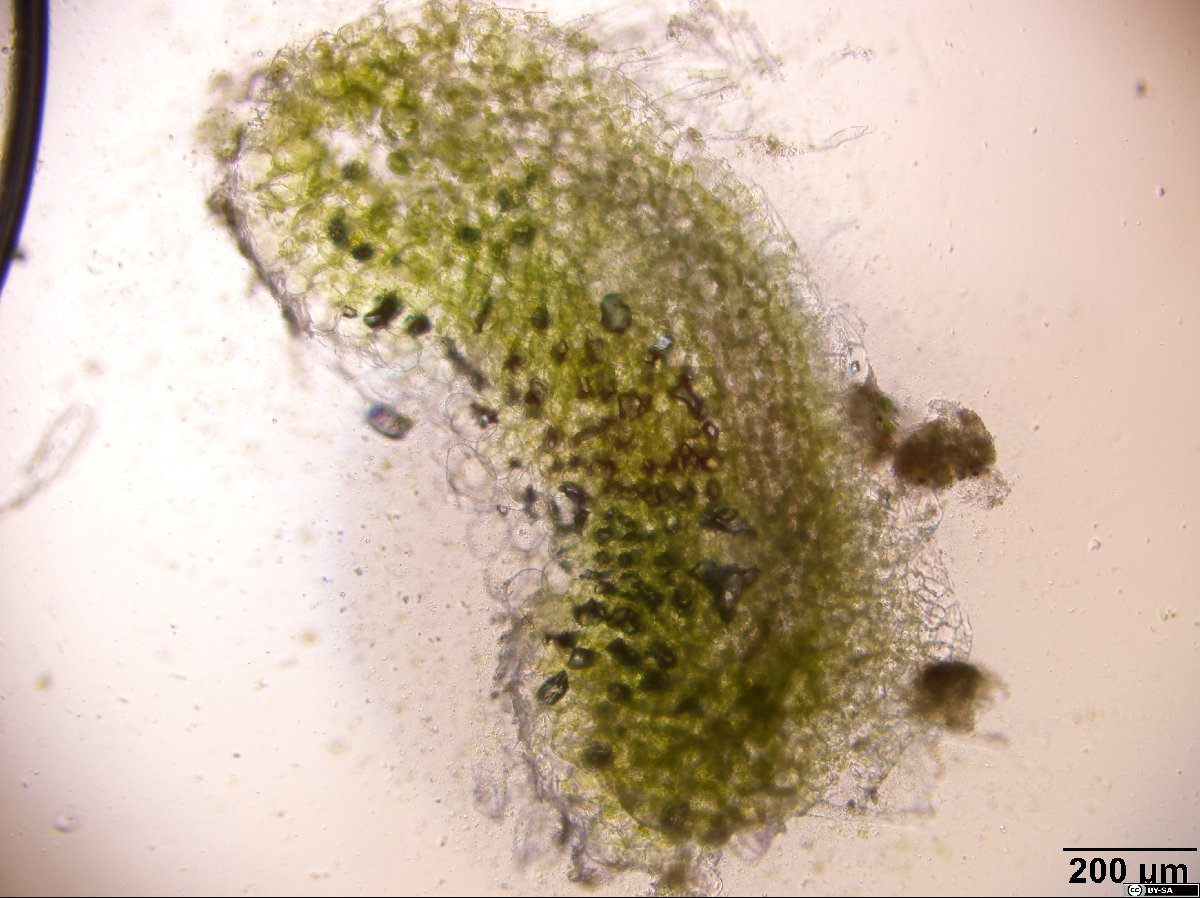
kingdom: Plantae
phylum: Marchantiophyta
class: Marchantiopsida
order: Marchantiales
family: Ricciaceae
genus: Riccia
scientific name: Riccia glauca
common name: Glaucous crystalwort
